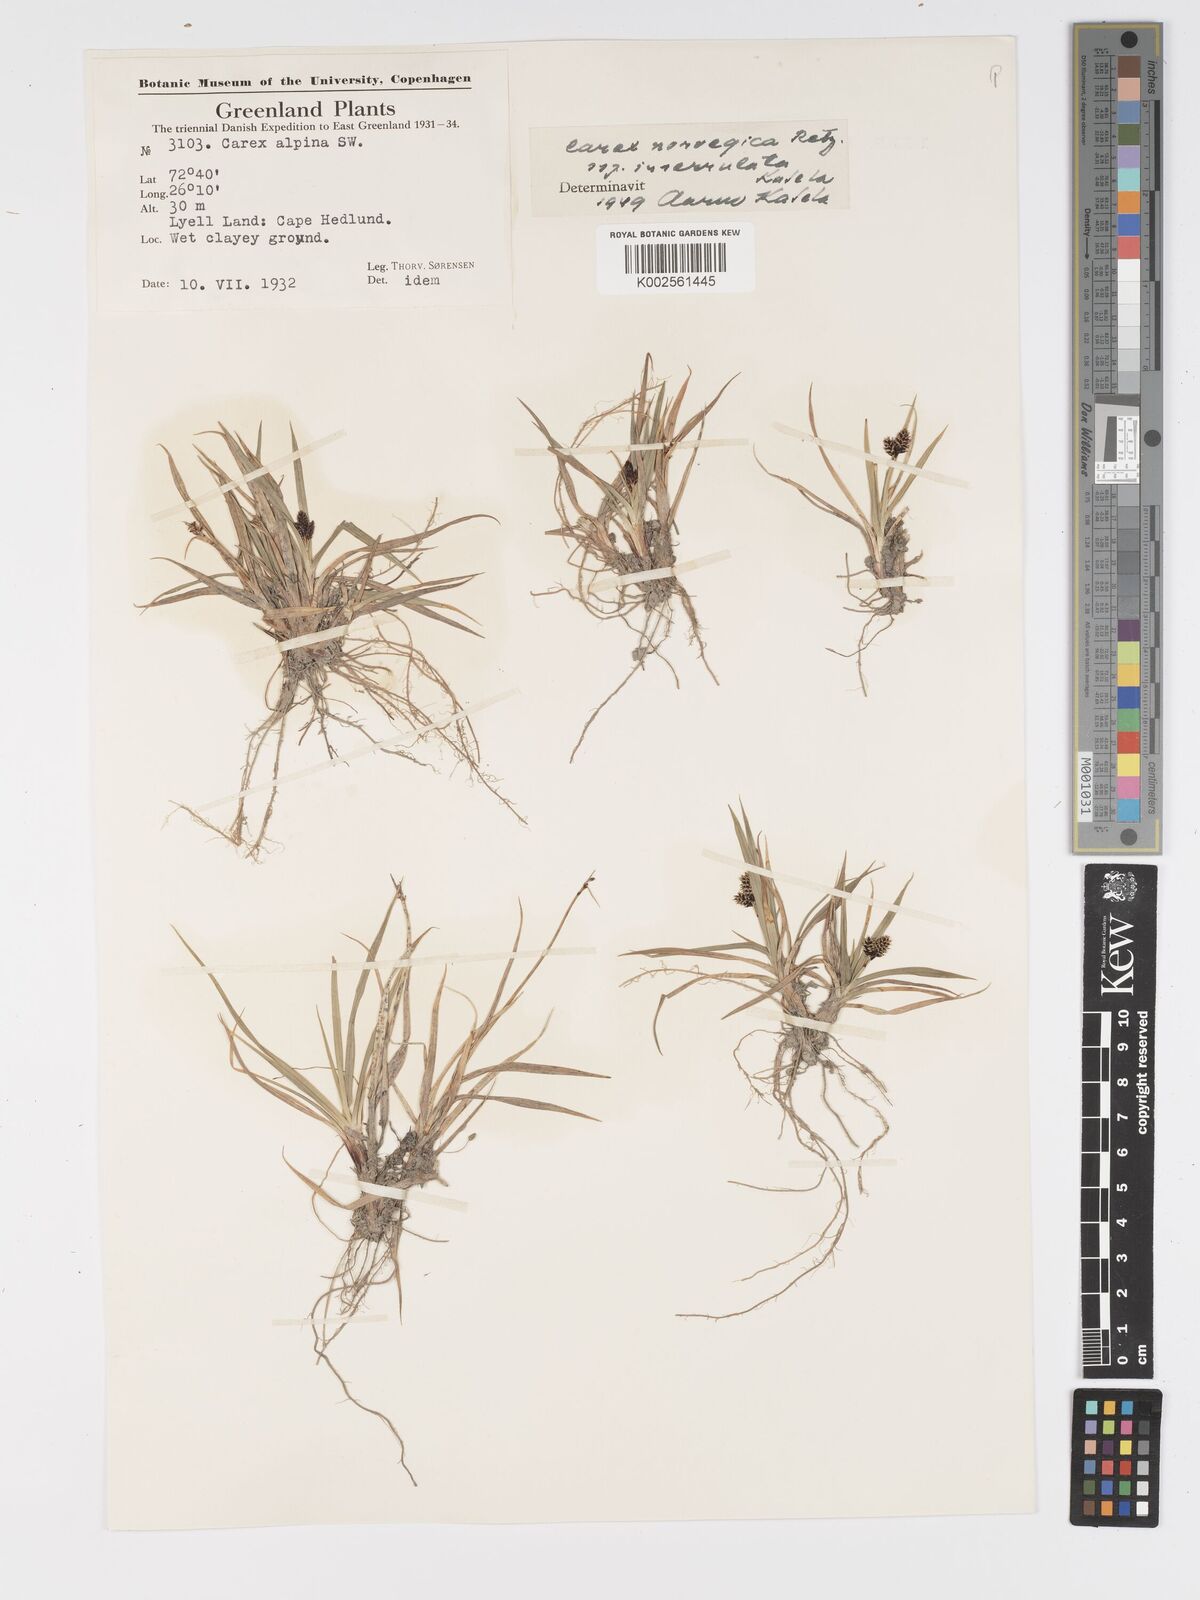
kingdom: Plantae
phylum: Tracheophyta
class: Liliopsida
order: Poales
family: Cyperaceae
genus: Carex
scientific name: Carex norvegica
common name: Close-headed alpine-sedge
